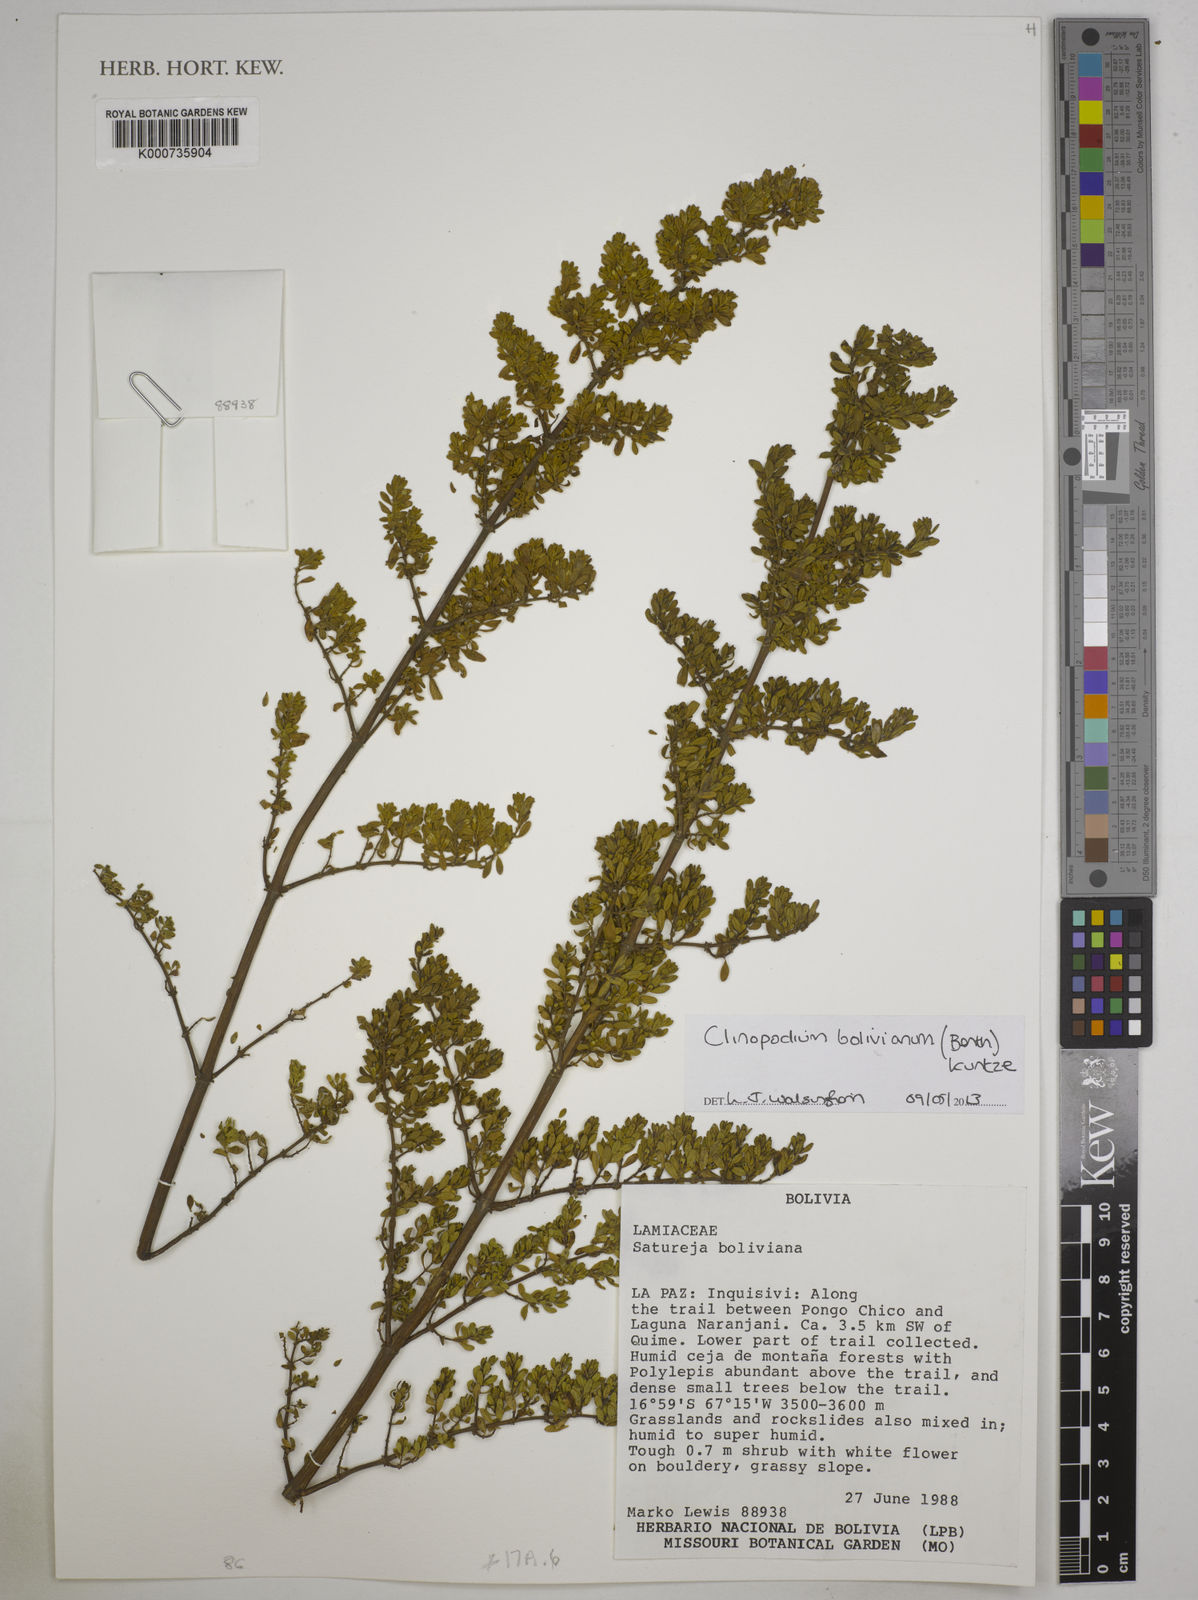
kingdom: Plantae
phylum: Tracheophyta
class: Magnoliopsida
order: Lamiales
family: Lamiaceae
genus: Clinopodium
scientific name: Clinopodium bolivianum
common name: Inca muña
